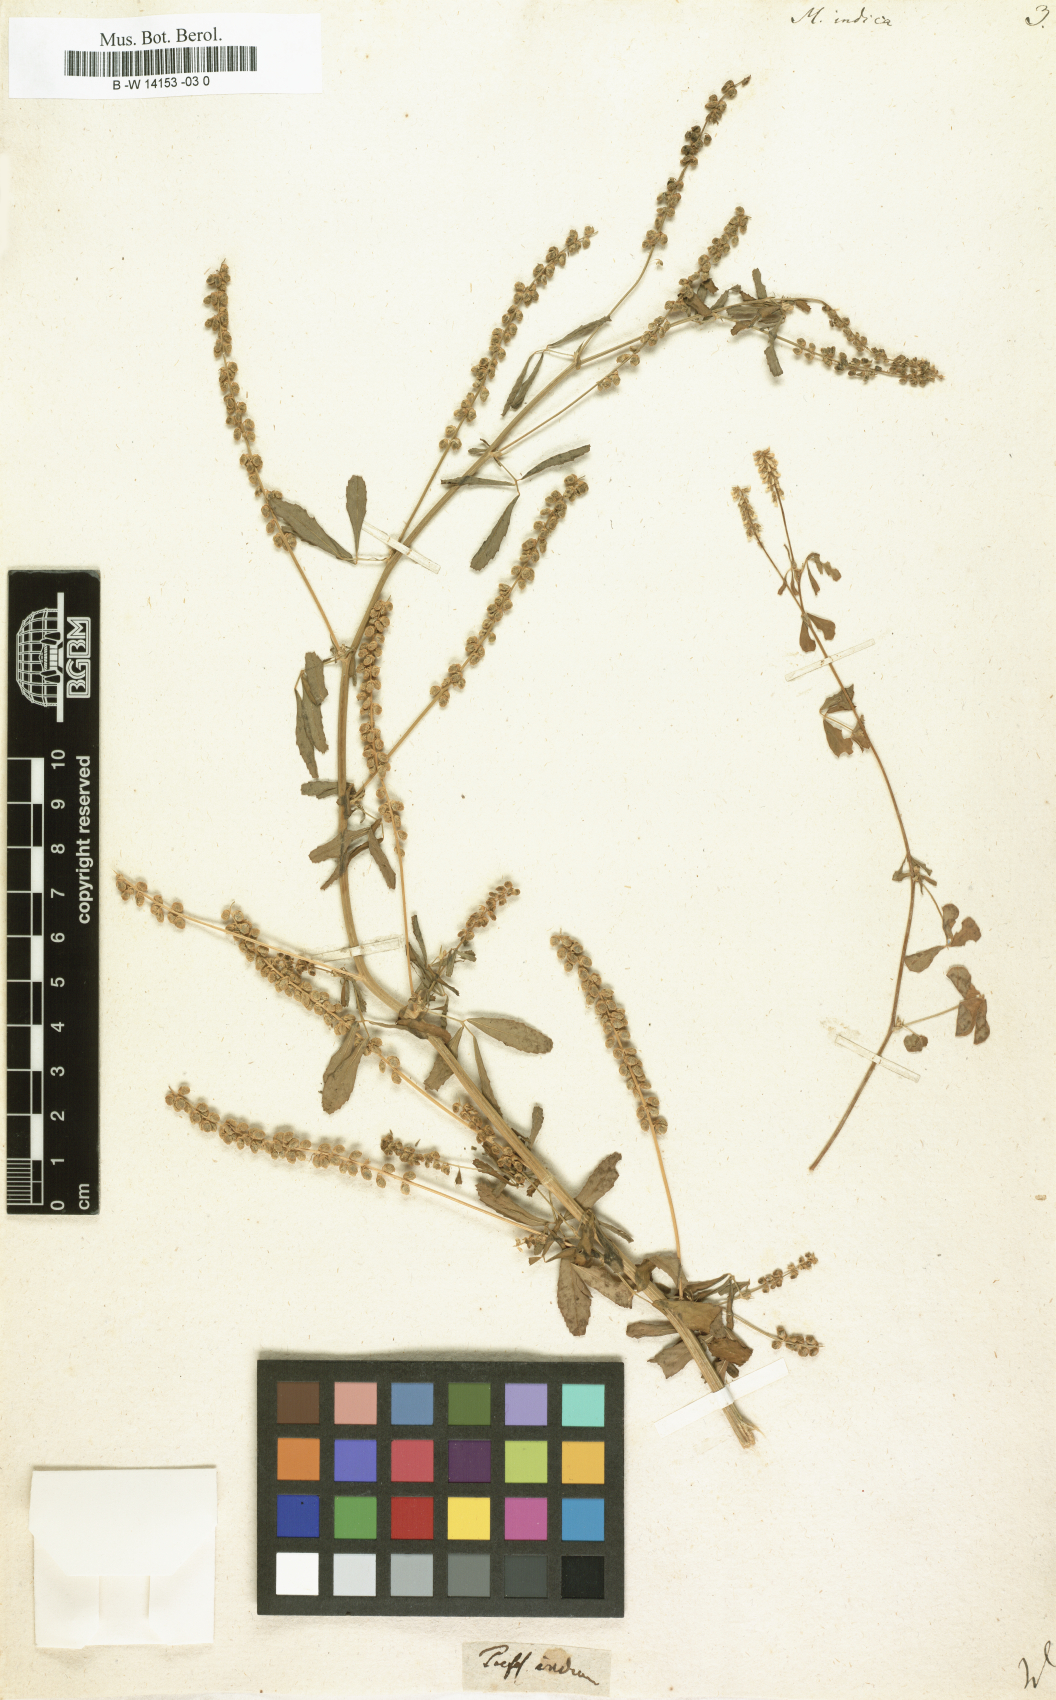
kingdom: Plantae
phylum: Tracheophyta
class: Magnoliopsida
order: Fabales
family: Fabaceae
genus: Melilotus
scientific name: Melilotus indicus
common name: Small melilot
